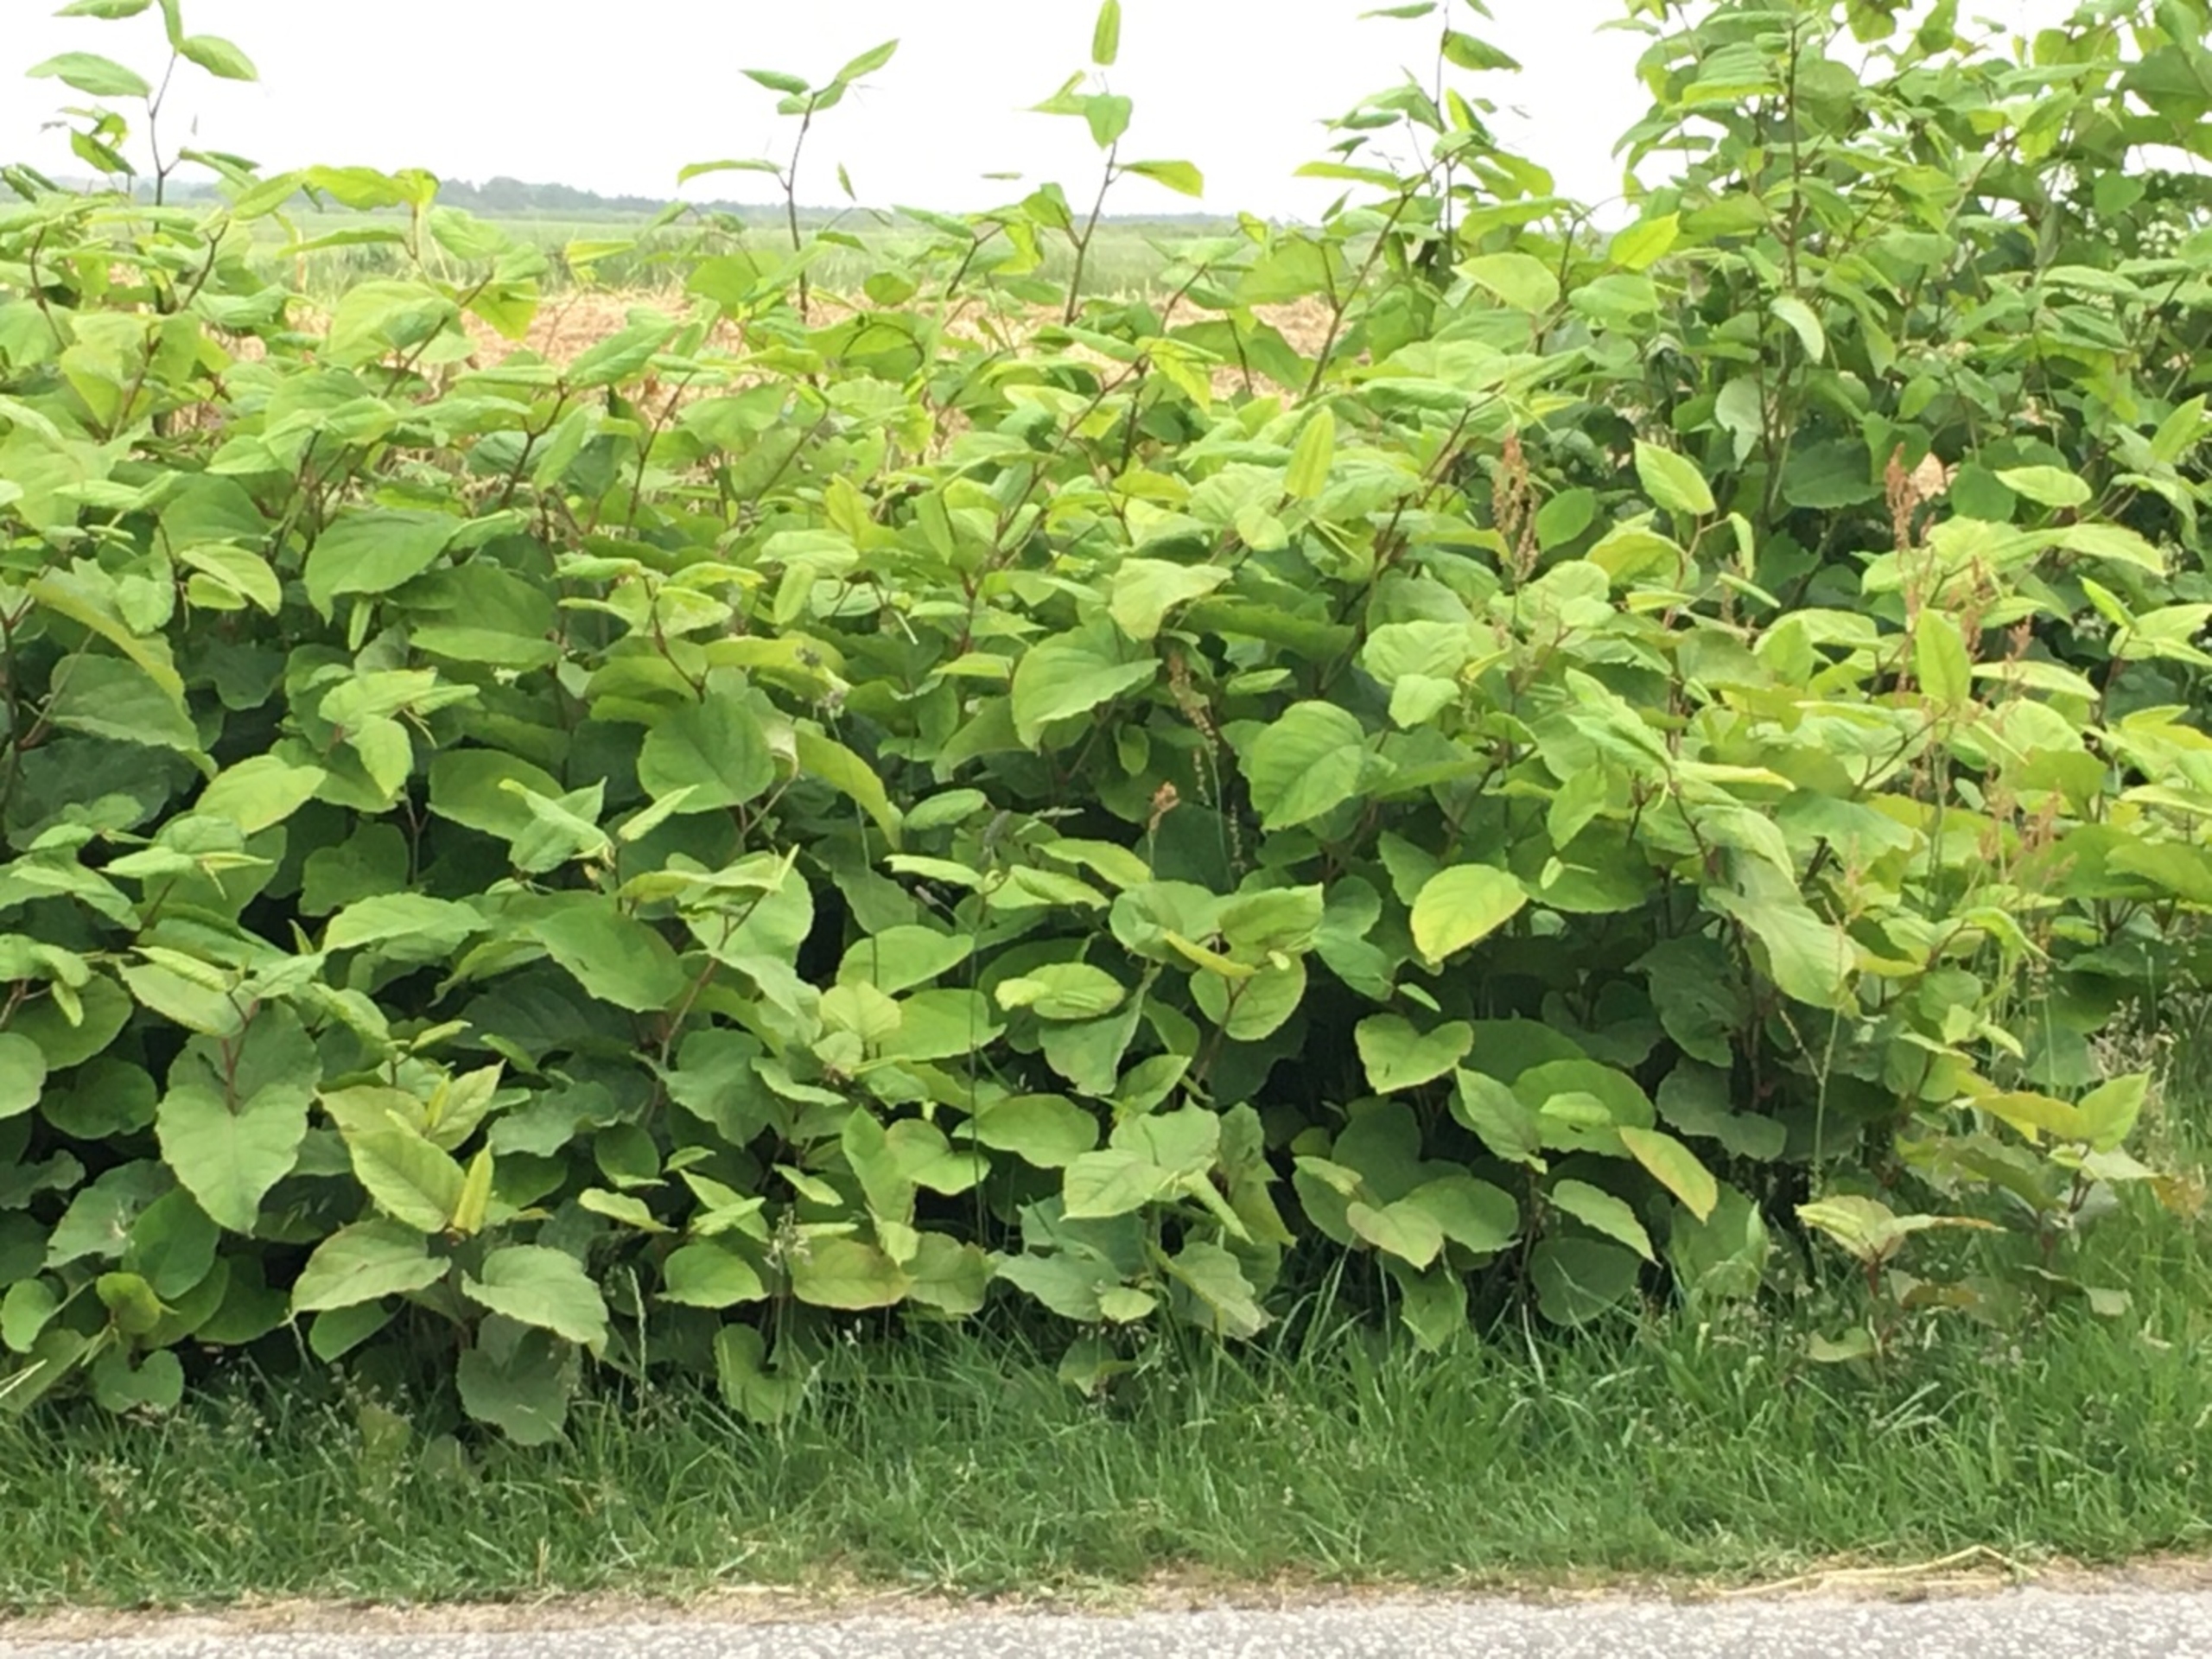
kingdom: Plantae
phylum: Tracheophyta
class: Magnoliopsida
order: Caryophyllales
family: Polygonaceae
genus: Reynoutria
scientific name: Reynoutria bohemica
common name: Hybrid-pileurt
